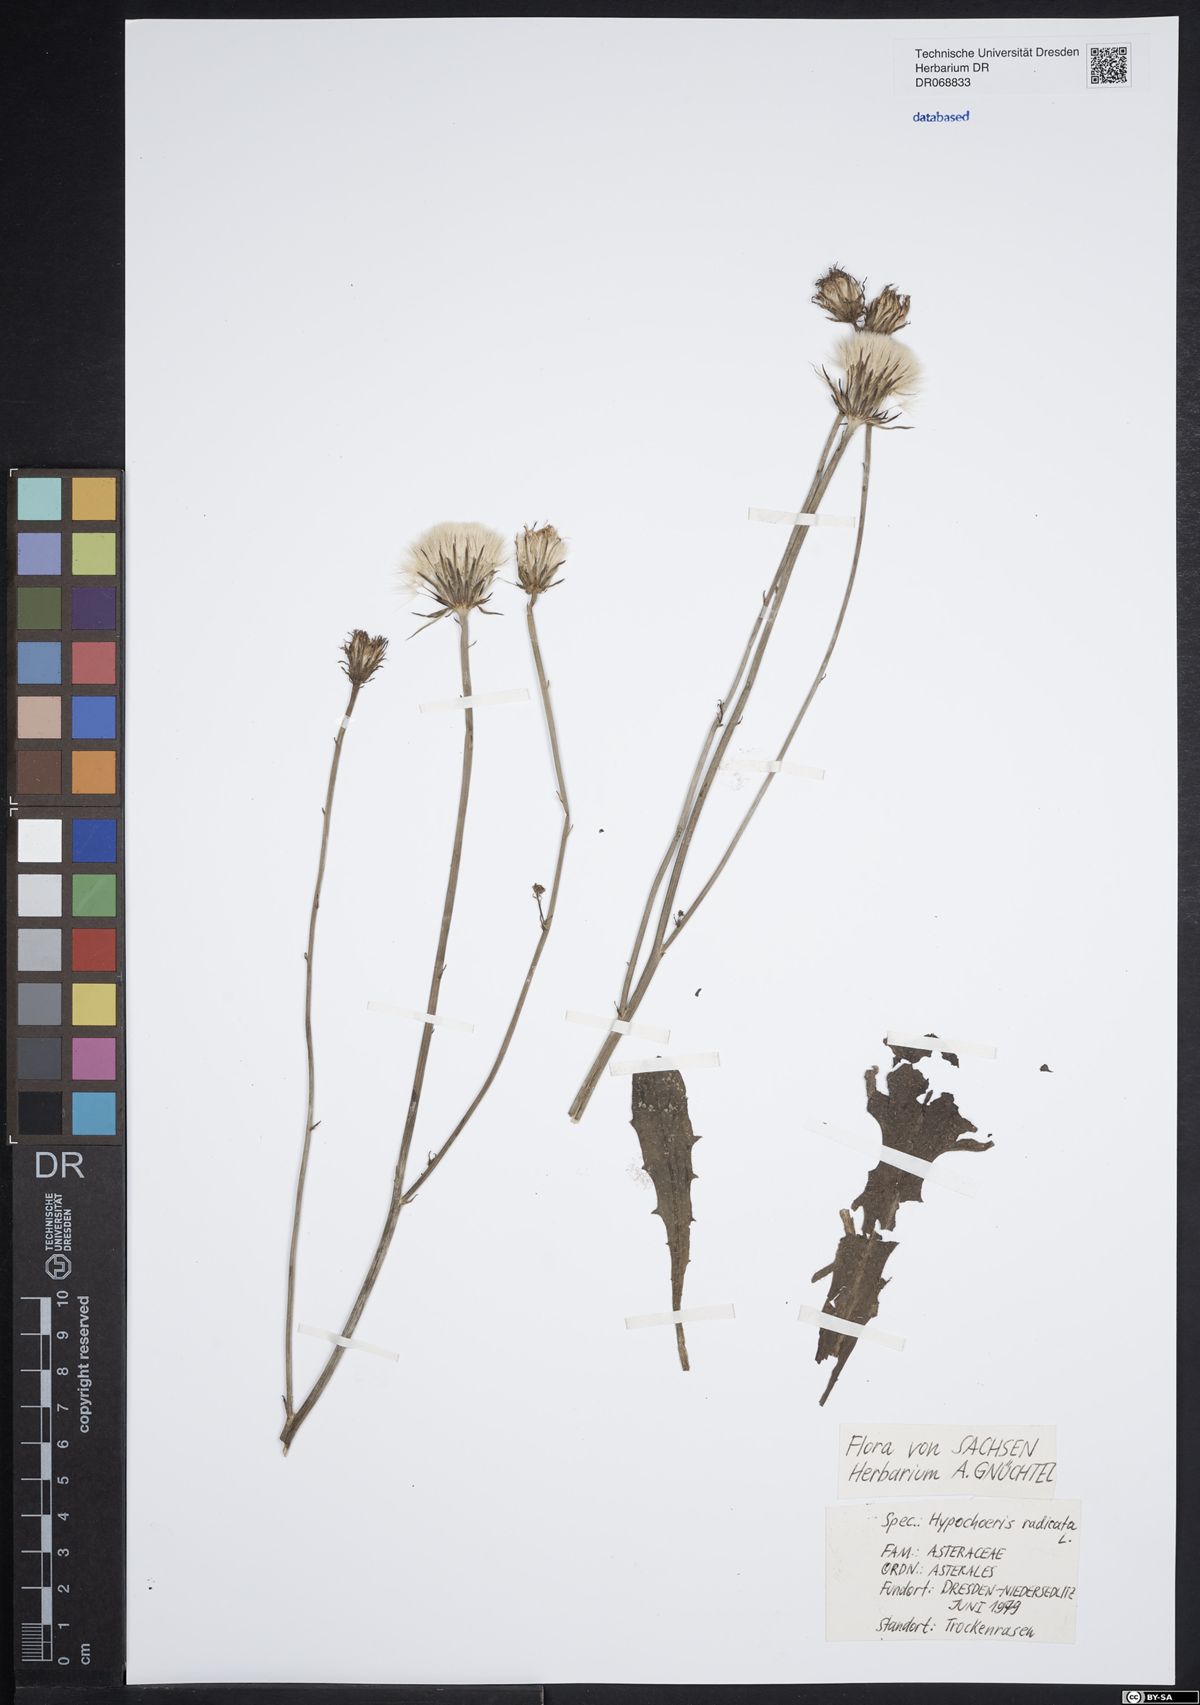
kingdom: Plantae
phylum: Tracheophyta
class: Magnoliopsida
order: Asterales
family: Asteraceae
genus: Hypochaeris
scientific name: Hypochaeris radicata
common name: Flatweed
